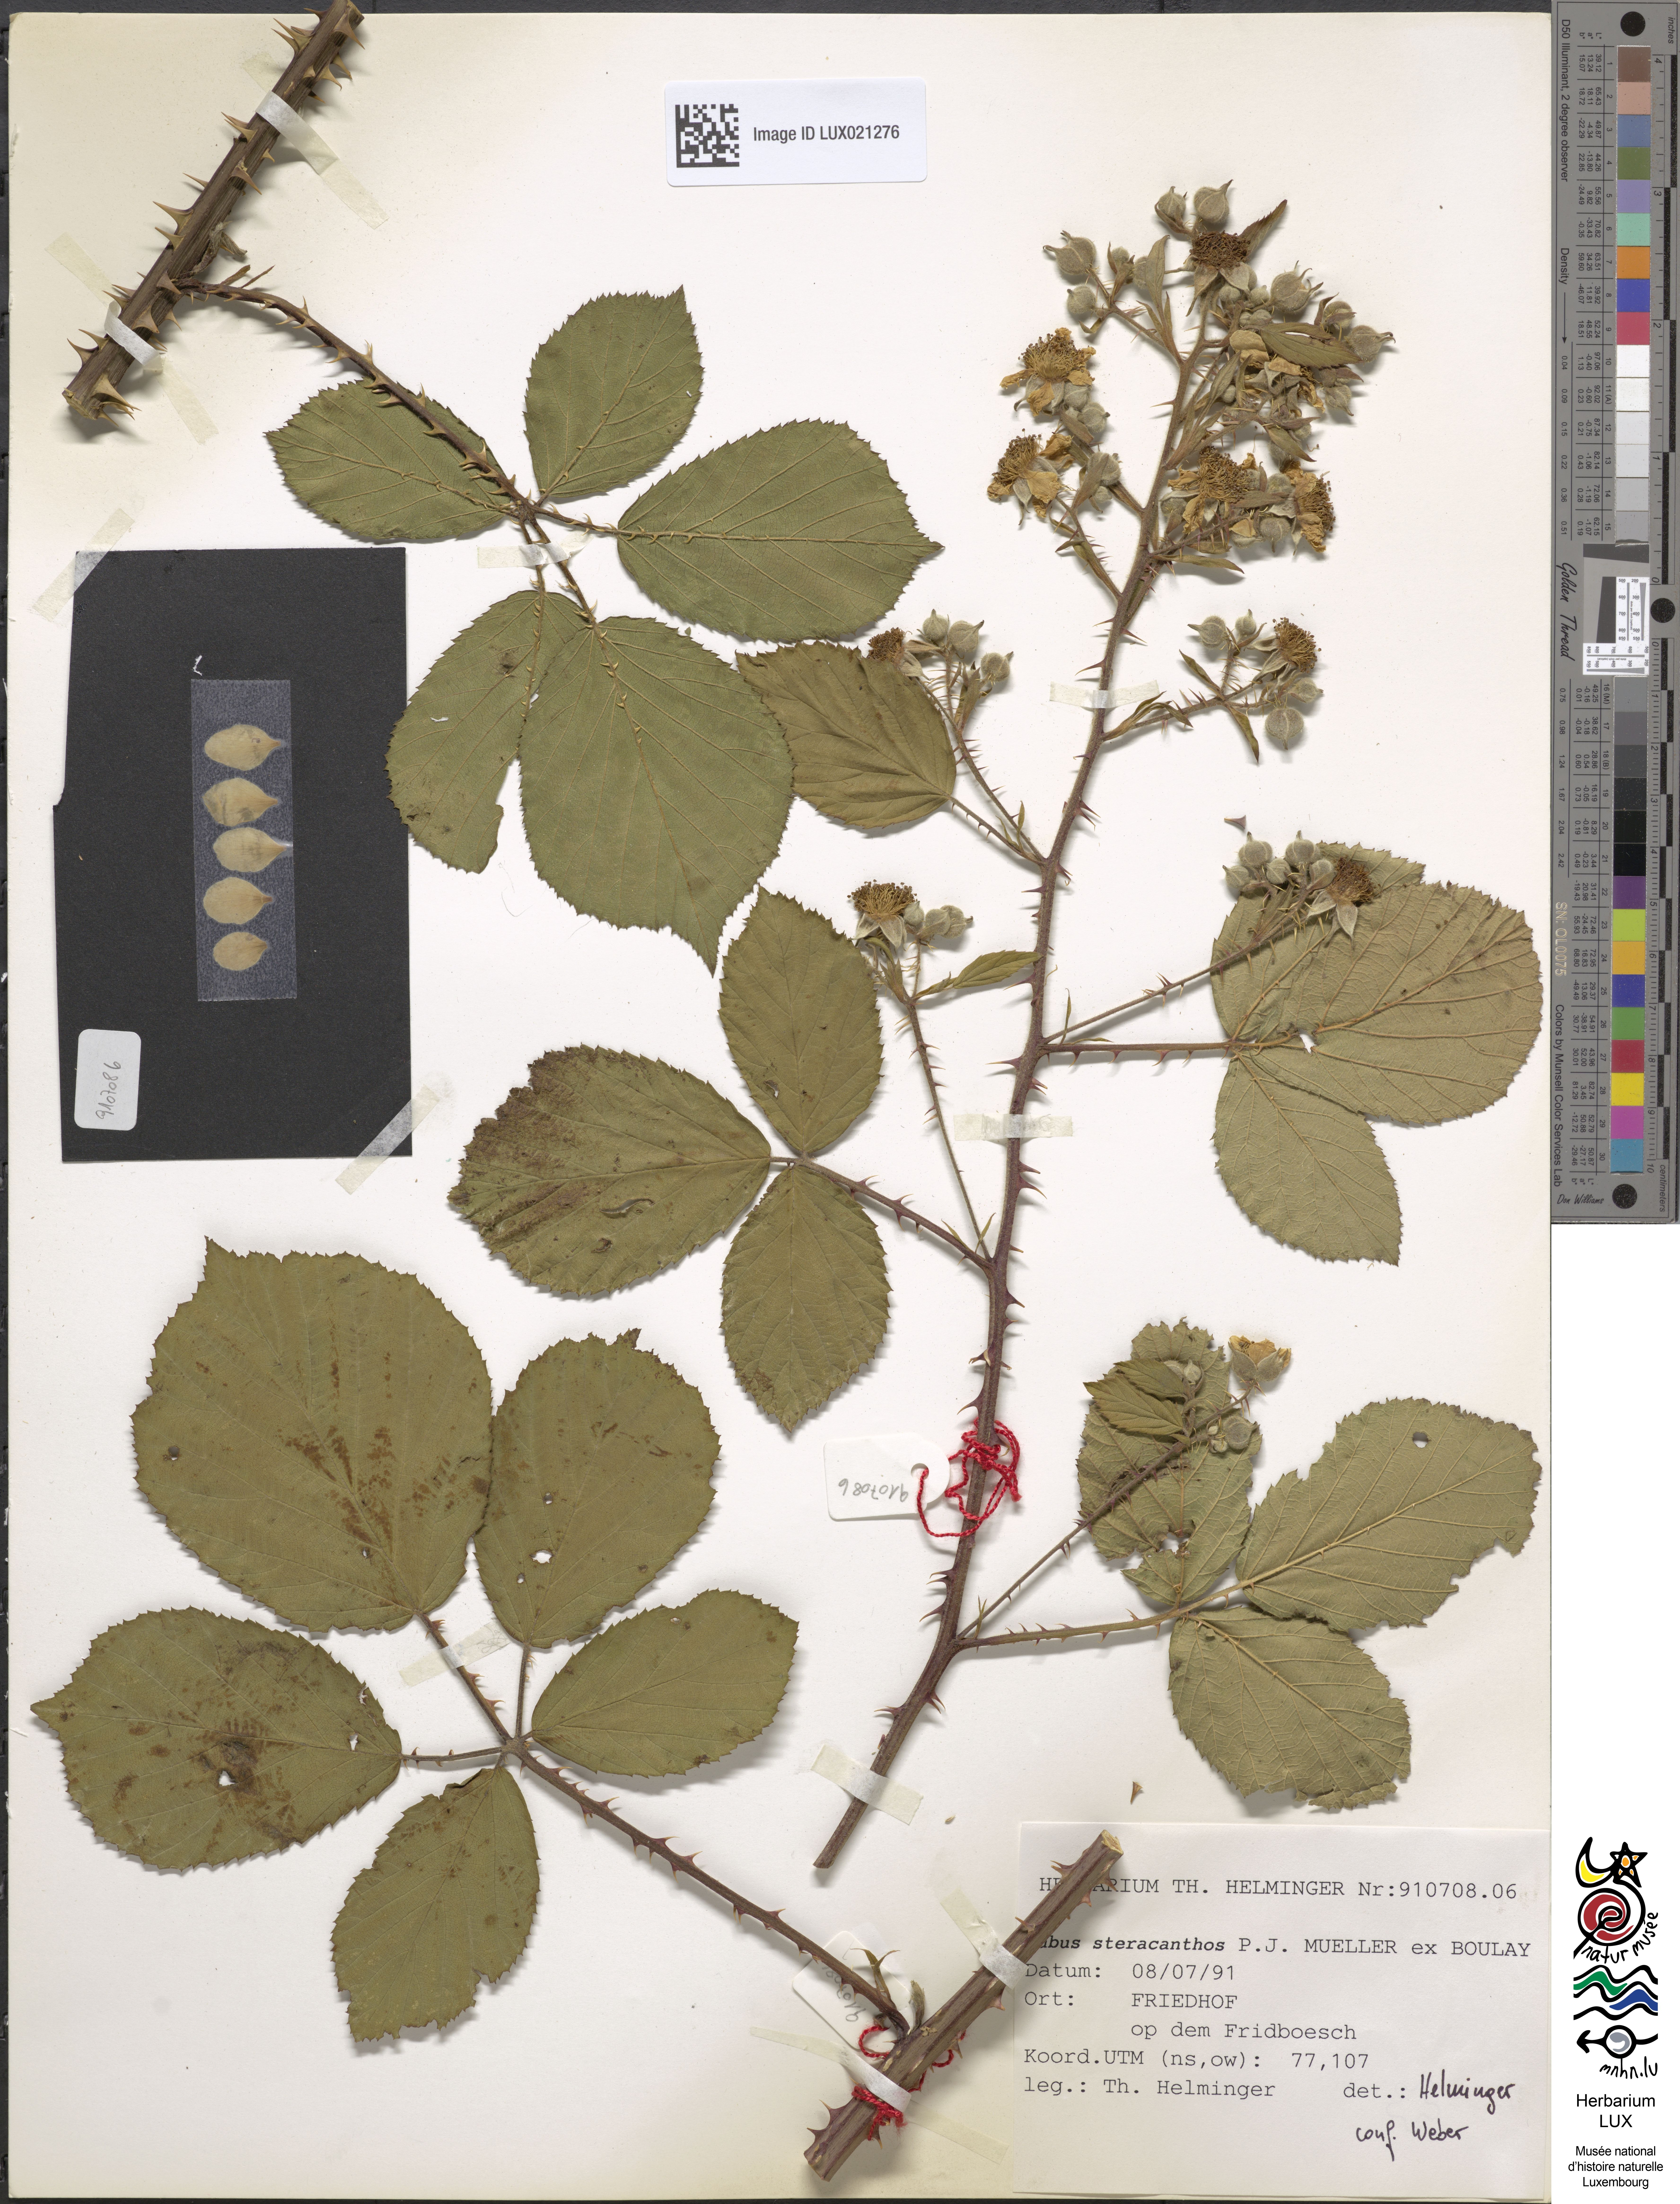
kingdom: Plantae
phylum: Tracheophyta
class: Magnoliopsida
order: Rosales
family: Rosaceae
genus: Rubus
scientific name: Rubus steracanthos
